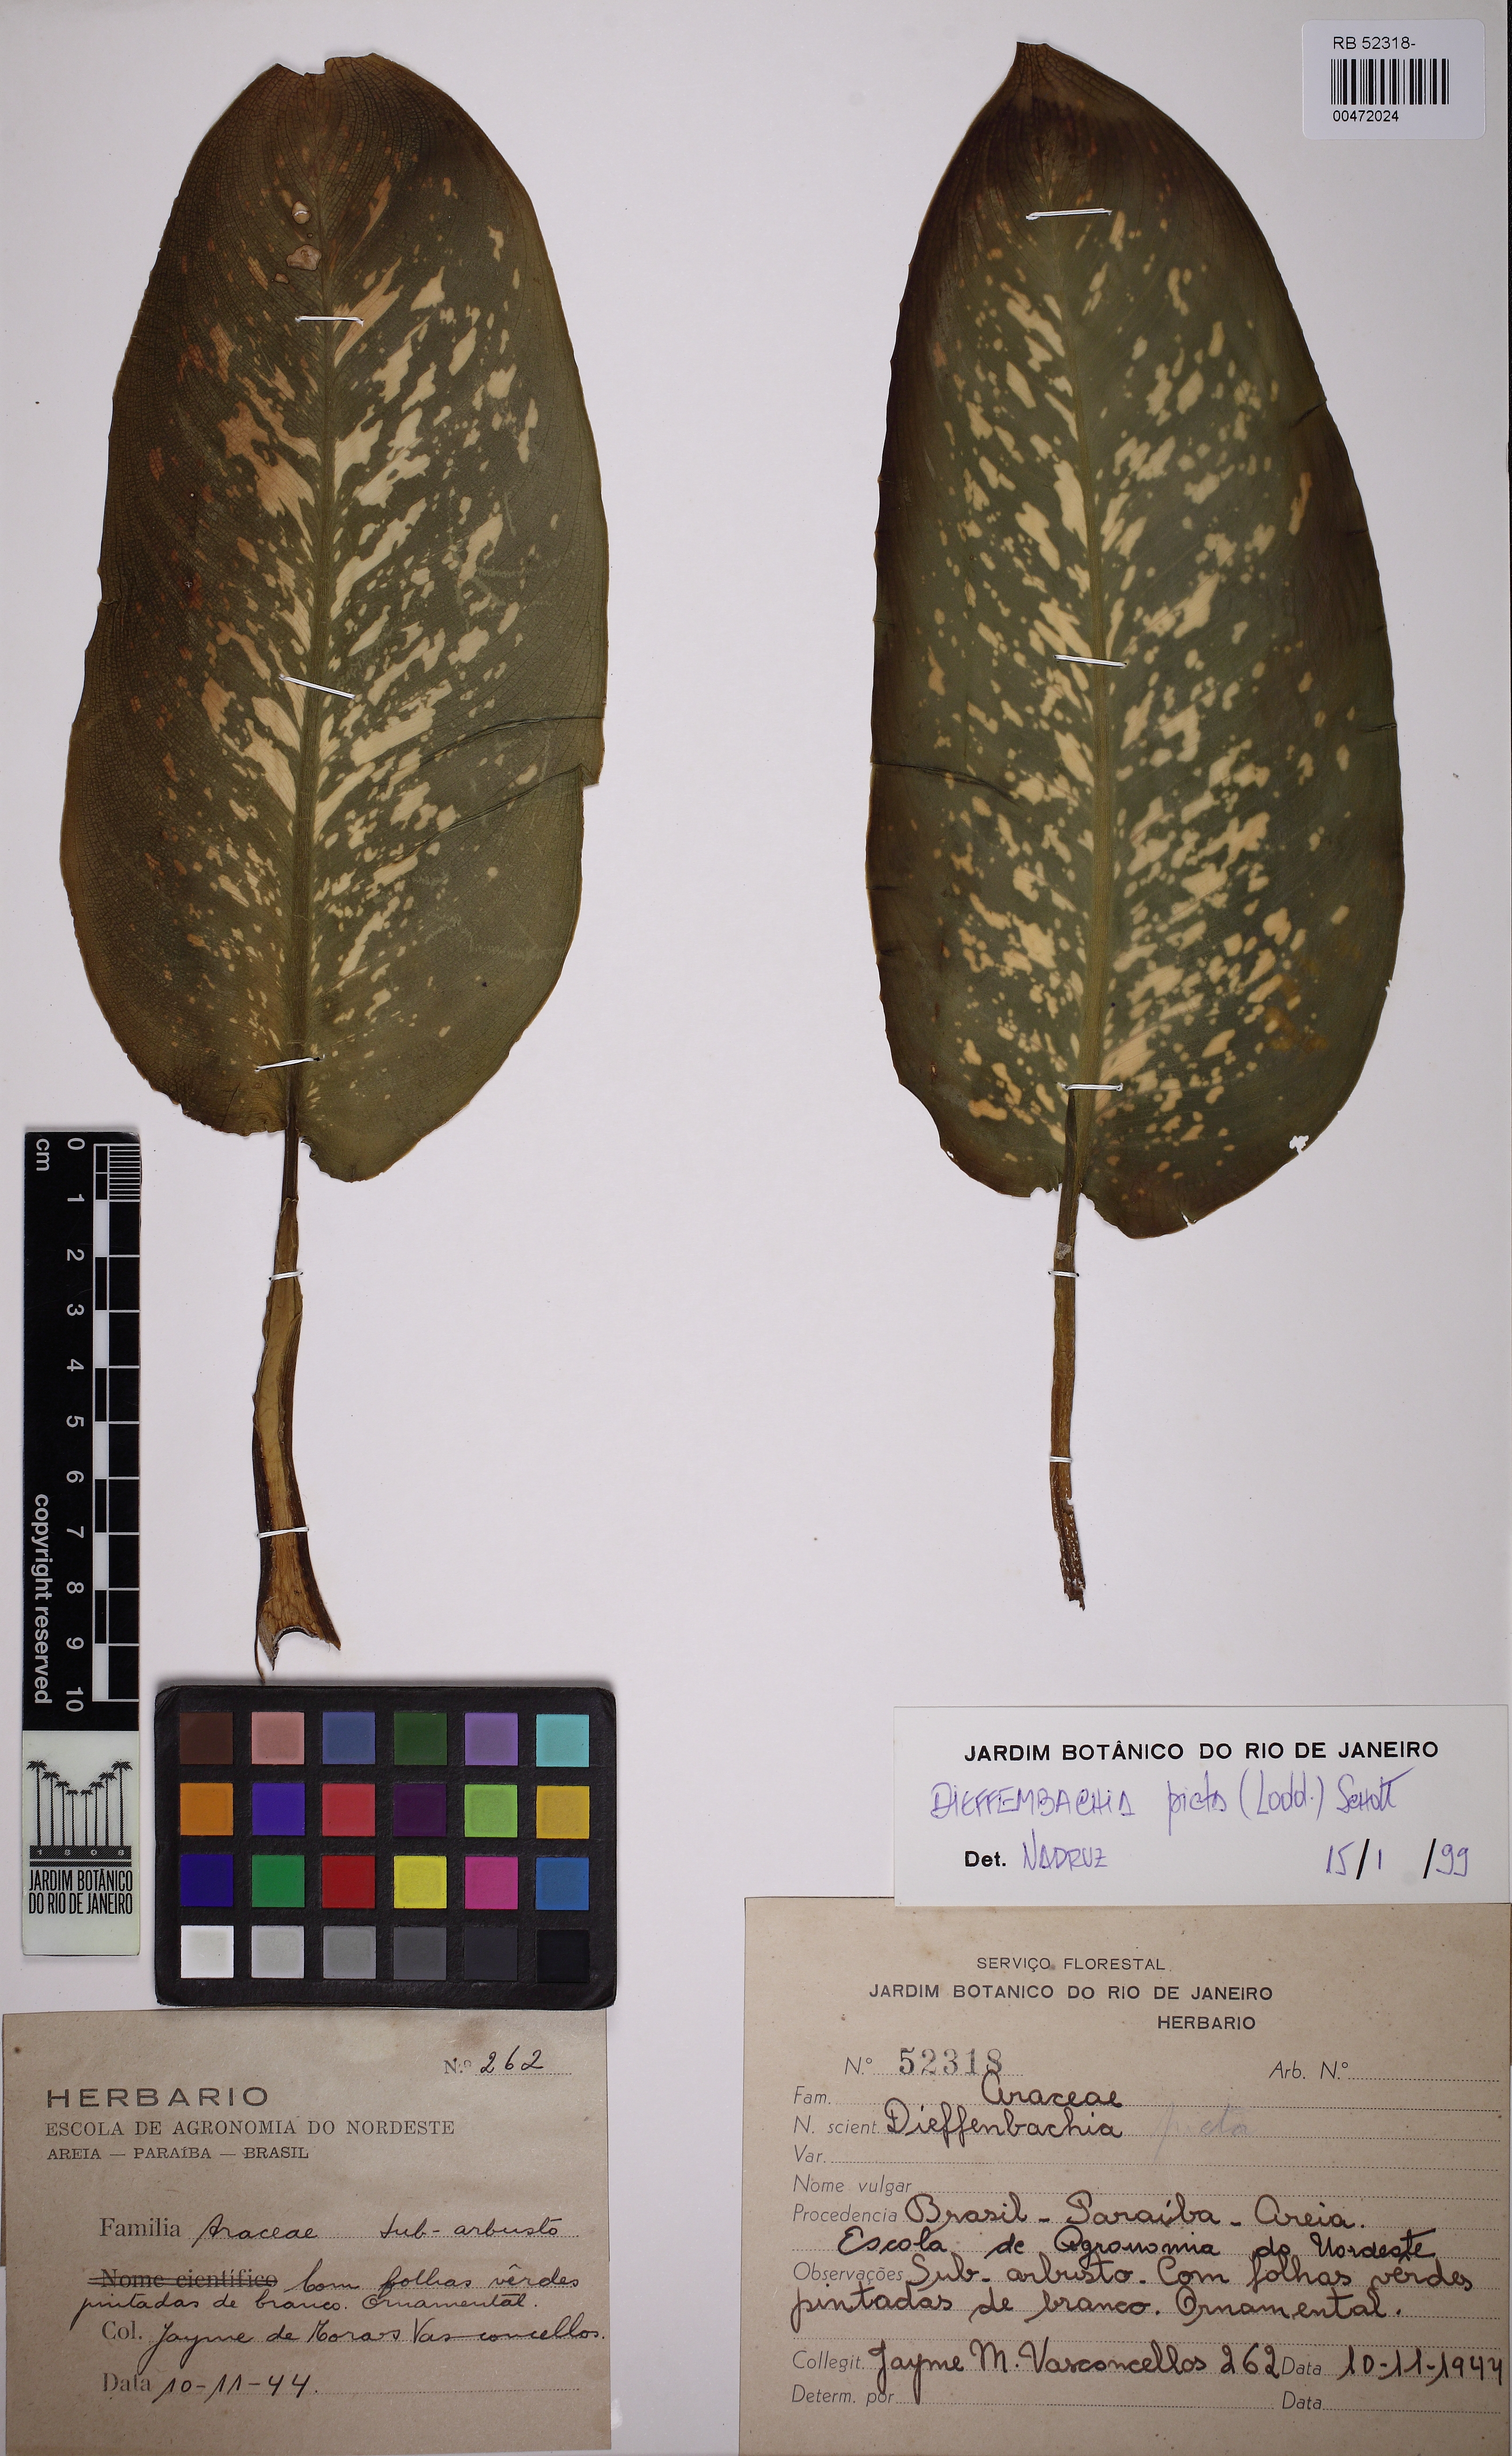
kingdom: Plantae
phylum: Tracheophyta
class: Liliopsida
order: Alismatales
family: Araceae
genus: Dieffenbachia
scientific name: Dieffenbachia seguine
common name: Dumbcane
